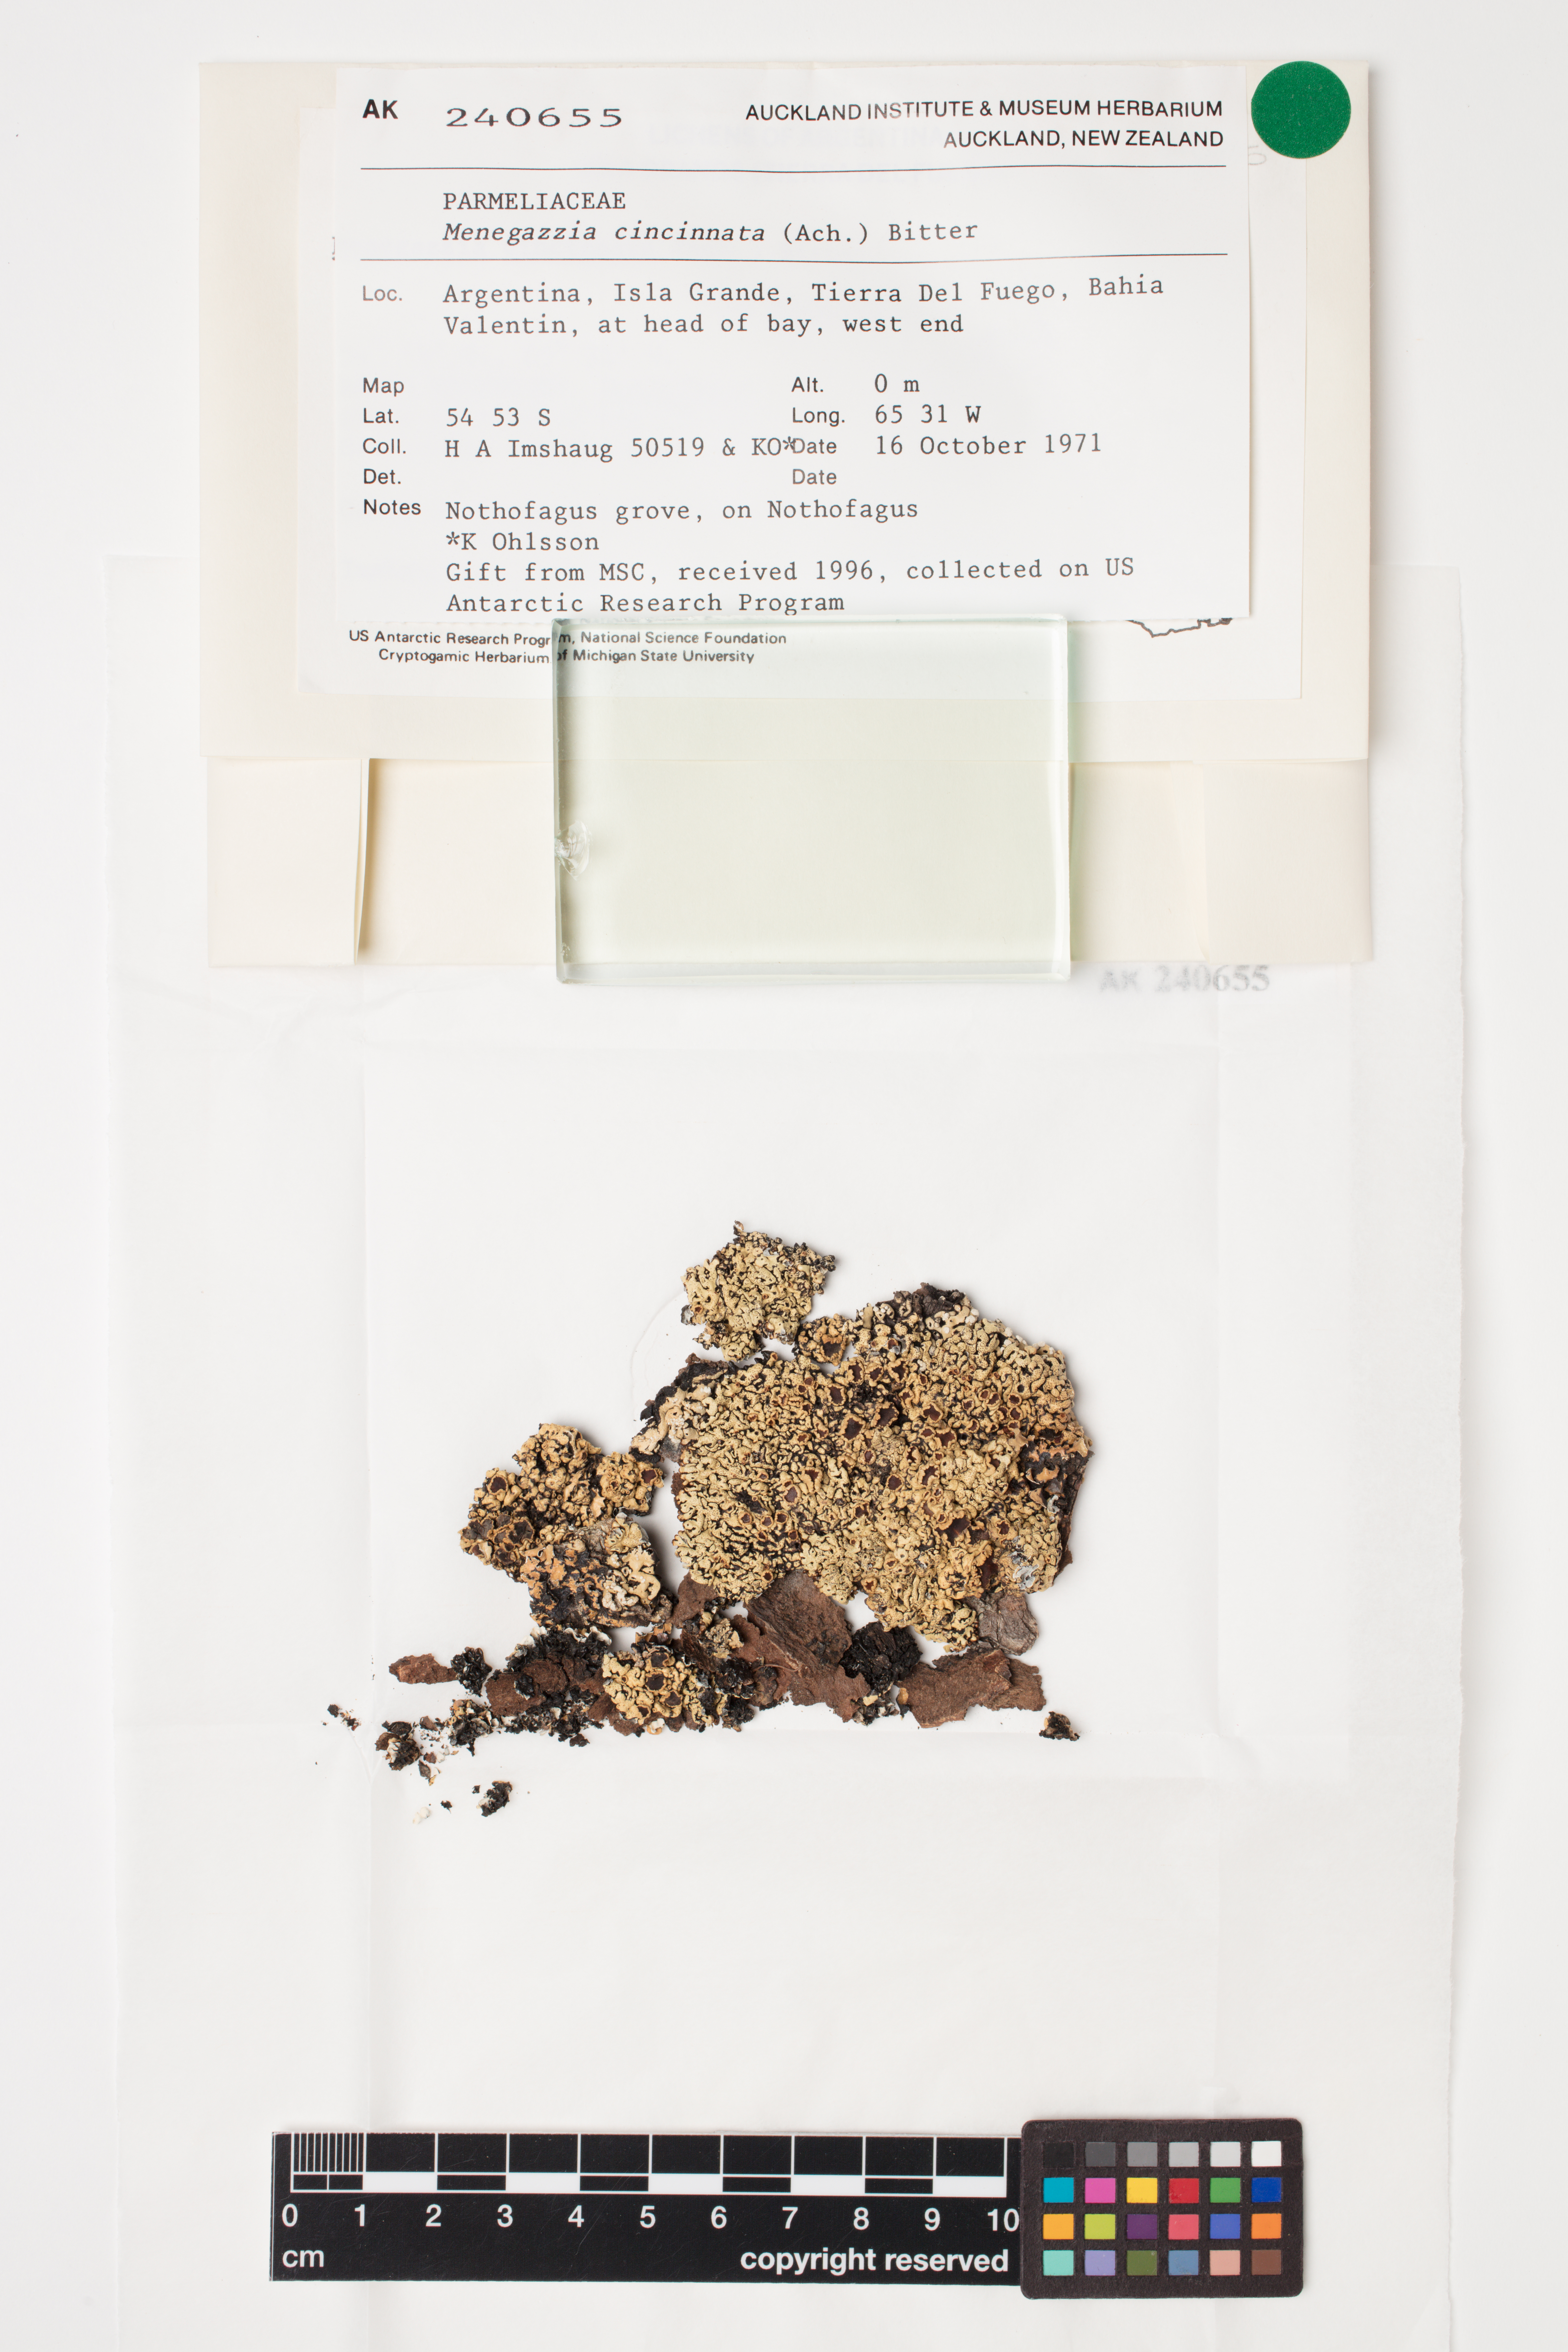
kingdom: Fungi
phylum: Ascomycota
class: Lecanoromycetes
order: Lecanorales
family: Parmeliaceae
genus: Menegazzia
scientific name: Menegazzia cincinnata
